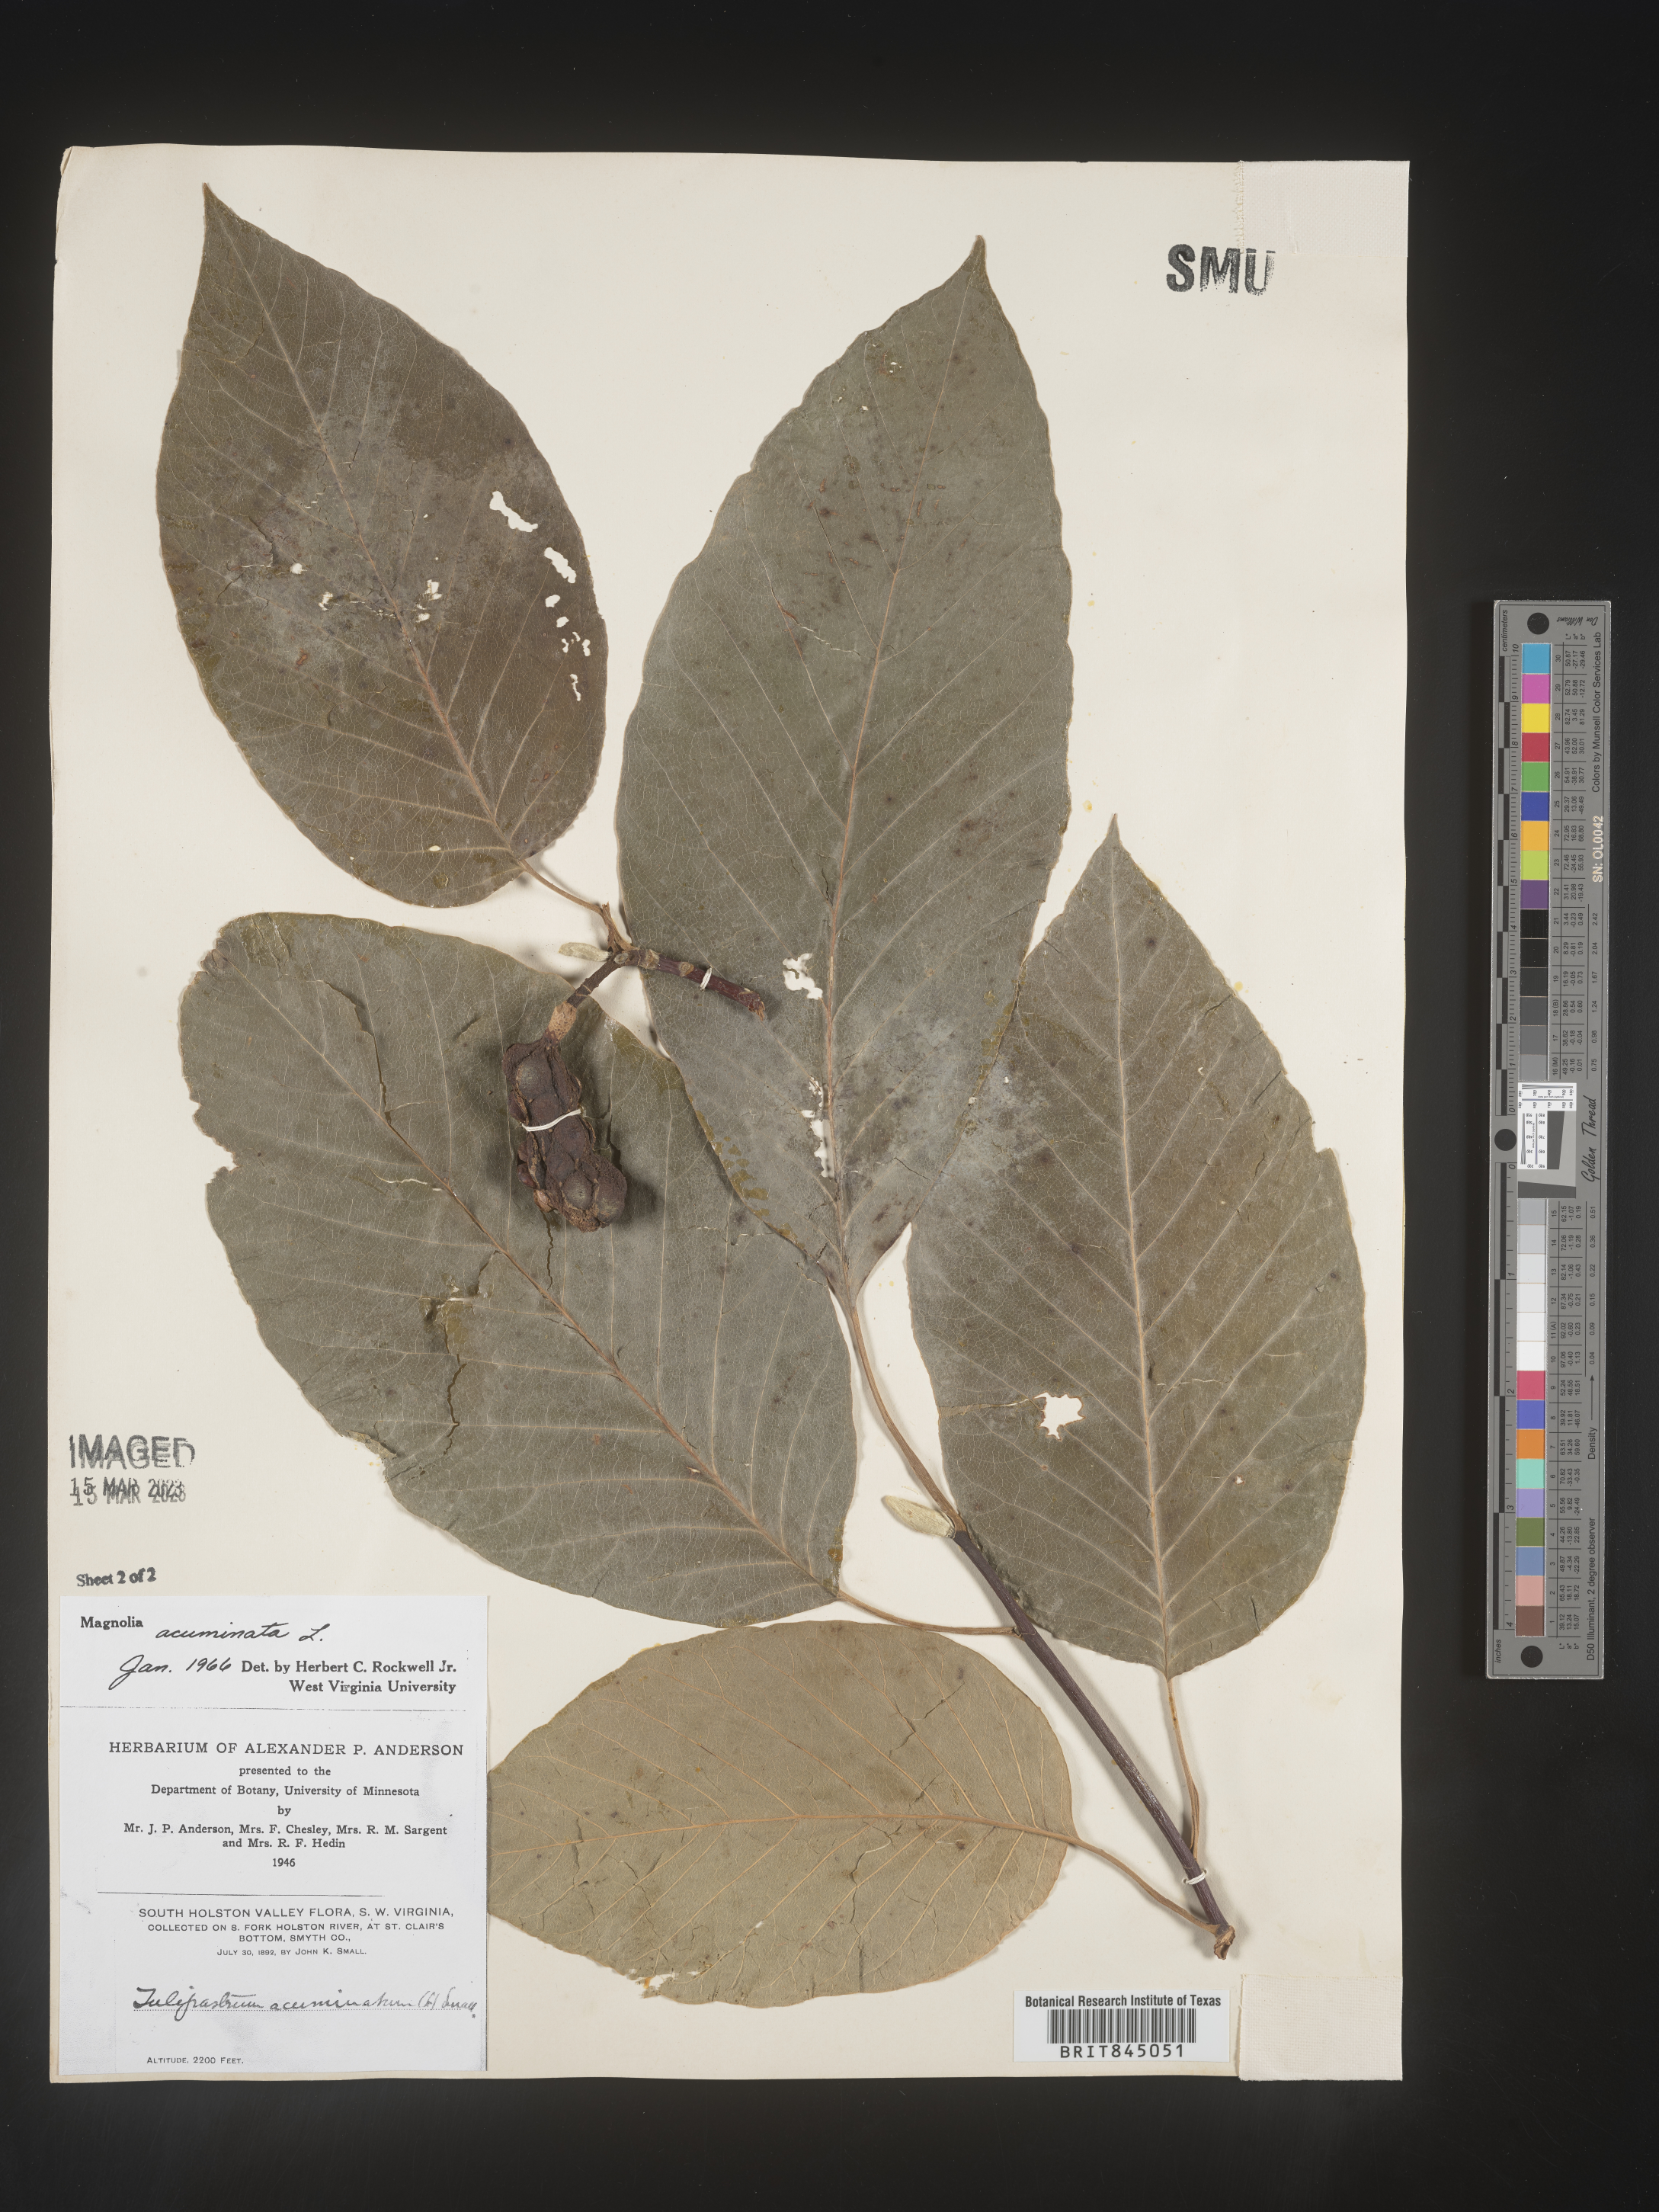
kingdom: Plantae
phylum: Tracheophyta
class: Magnoliopsida
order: Magnoliales
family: Magnoliaceae
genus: Magnolia
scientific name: Magnolia acuminata
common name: Cucumber magnolia
